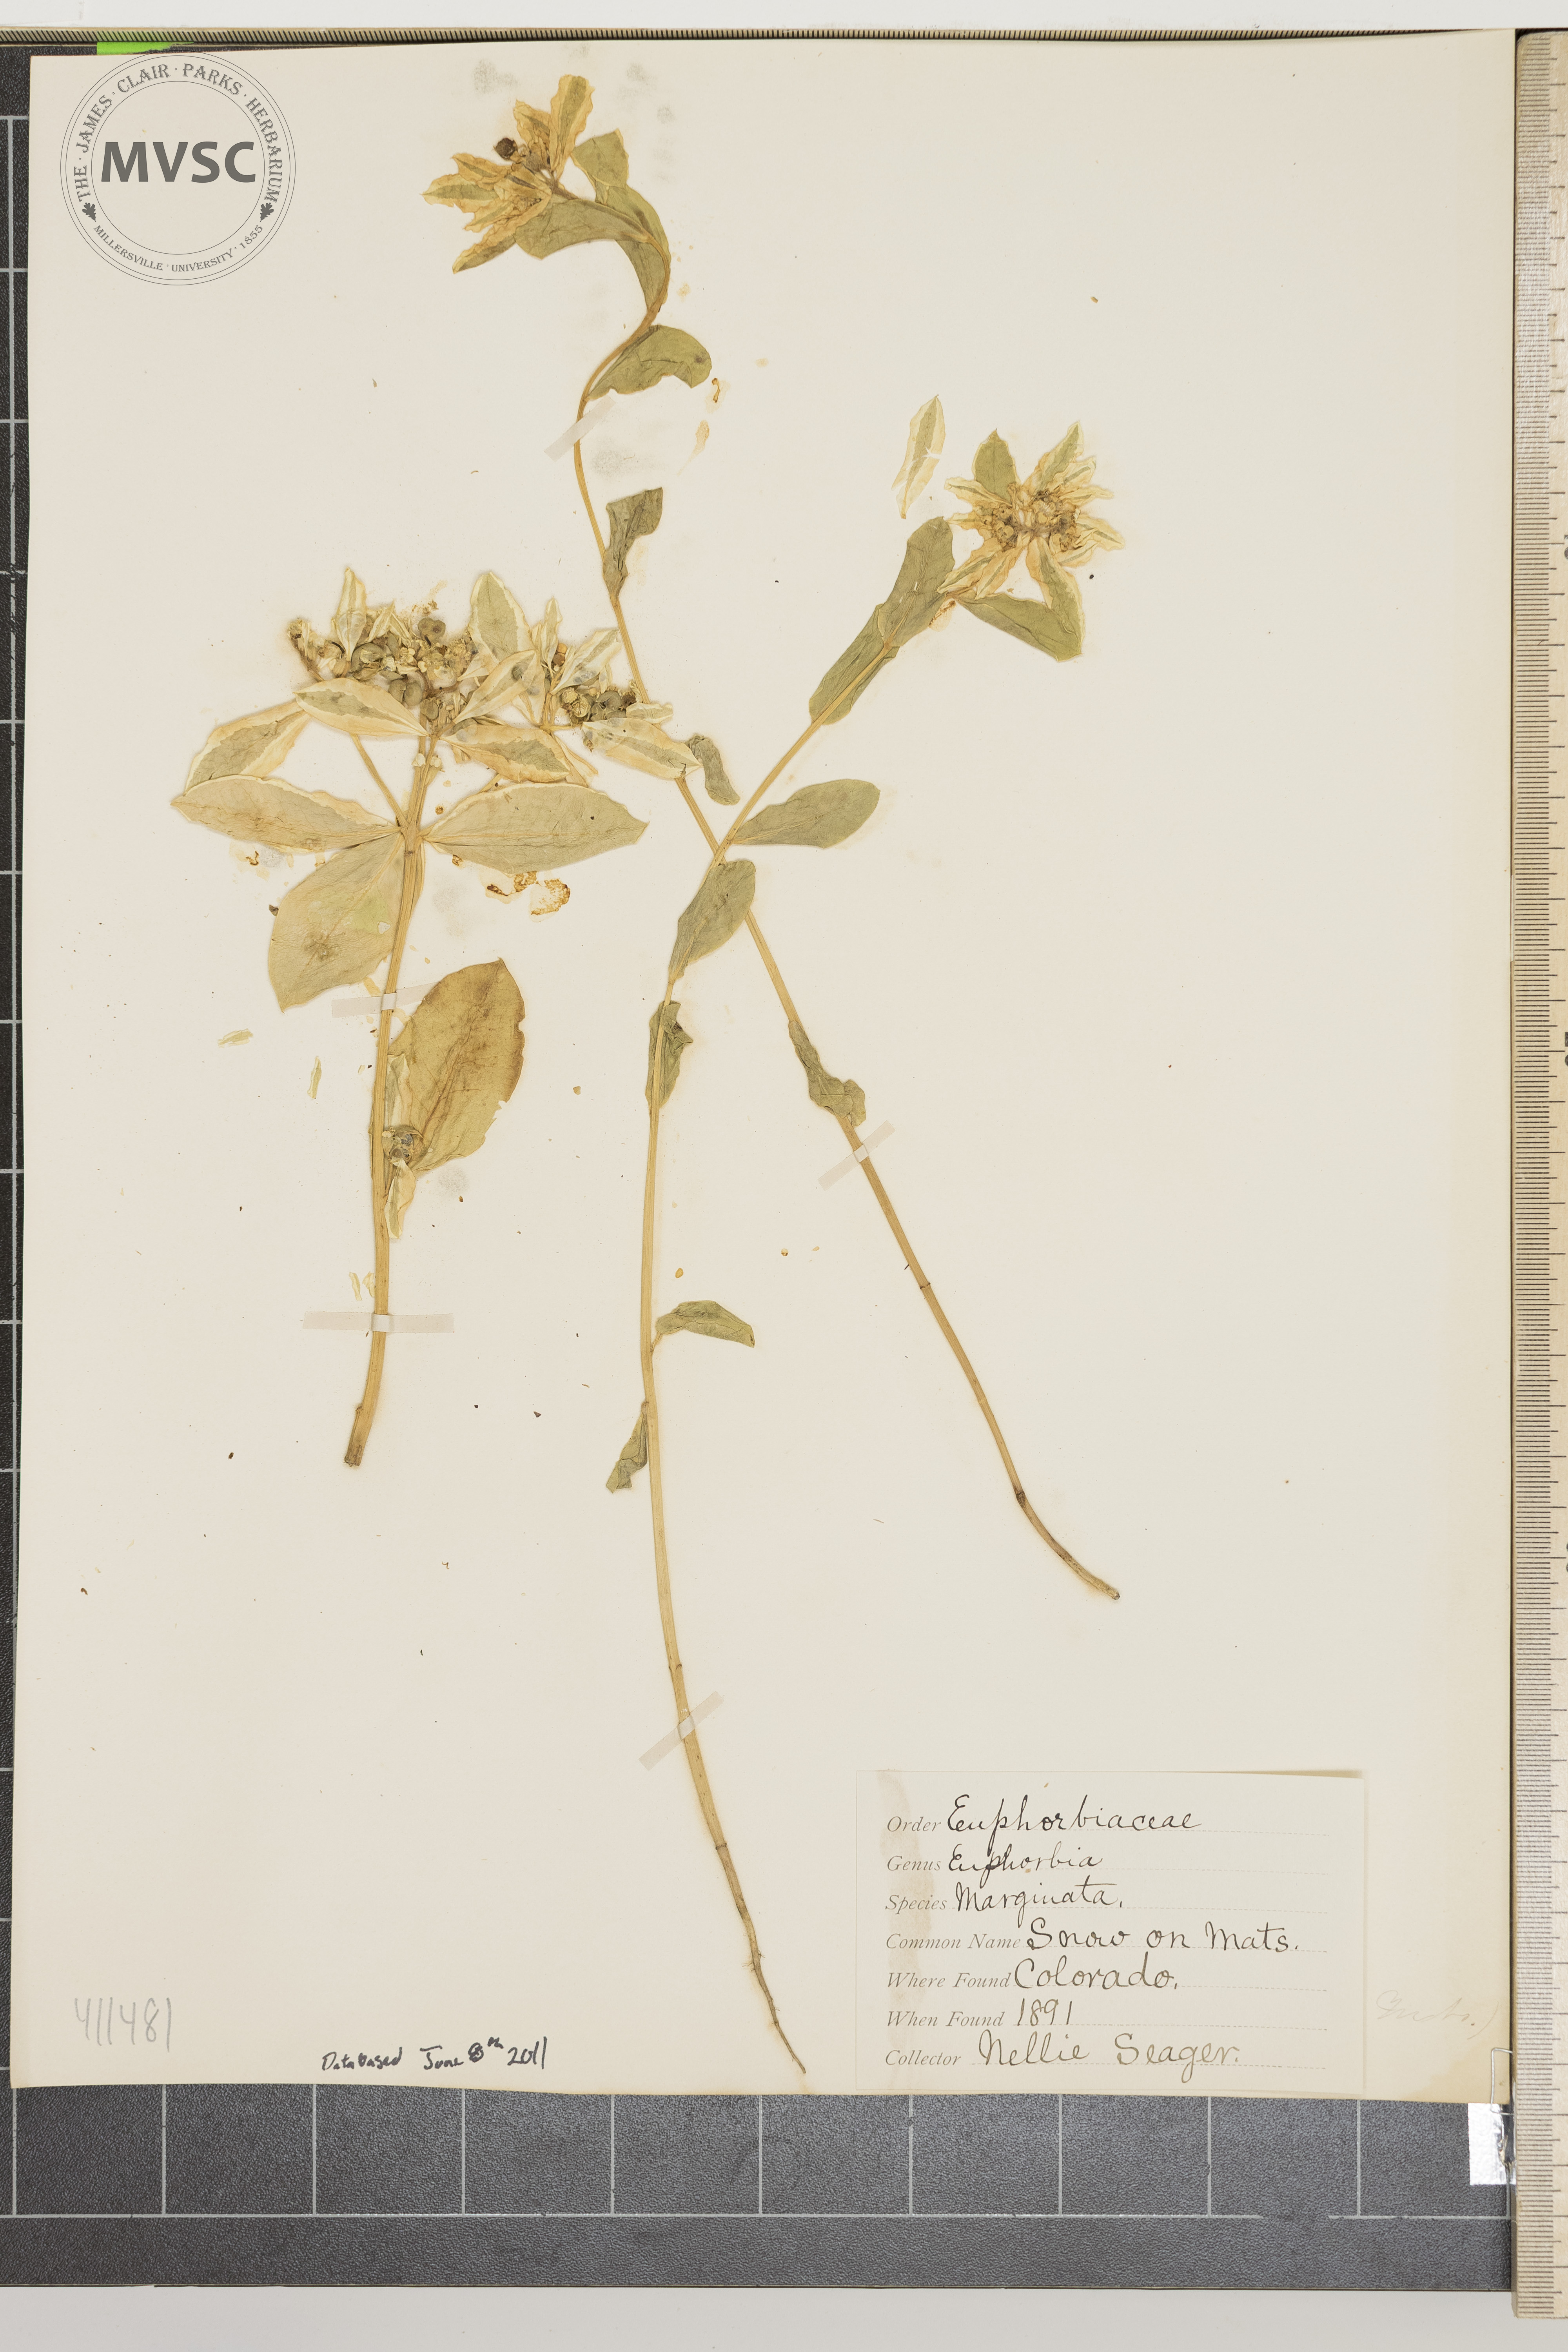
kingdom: Plantae
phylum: Tracheophyta
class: Magnoliopsida
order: Malpighiales
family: Euphorbiaceae
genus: Euphorbia
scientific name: Euphorbia marginata
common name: Ghostweed
